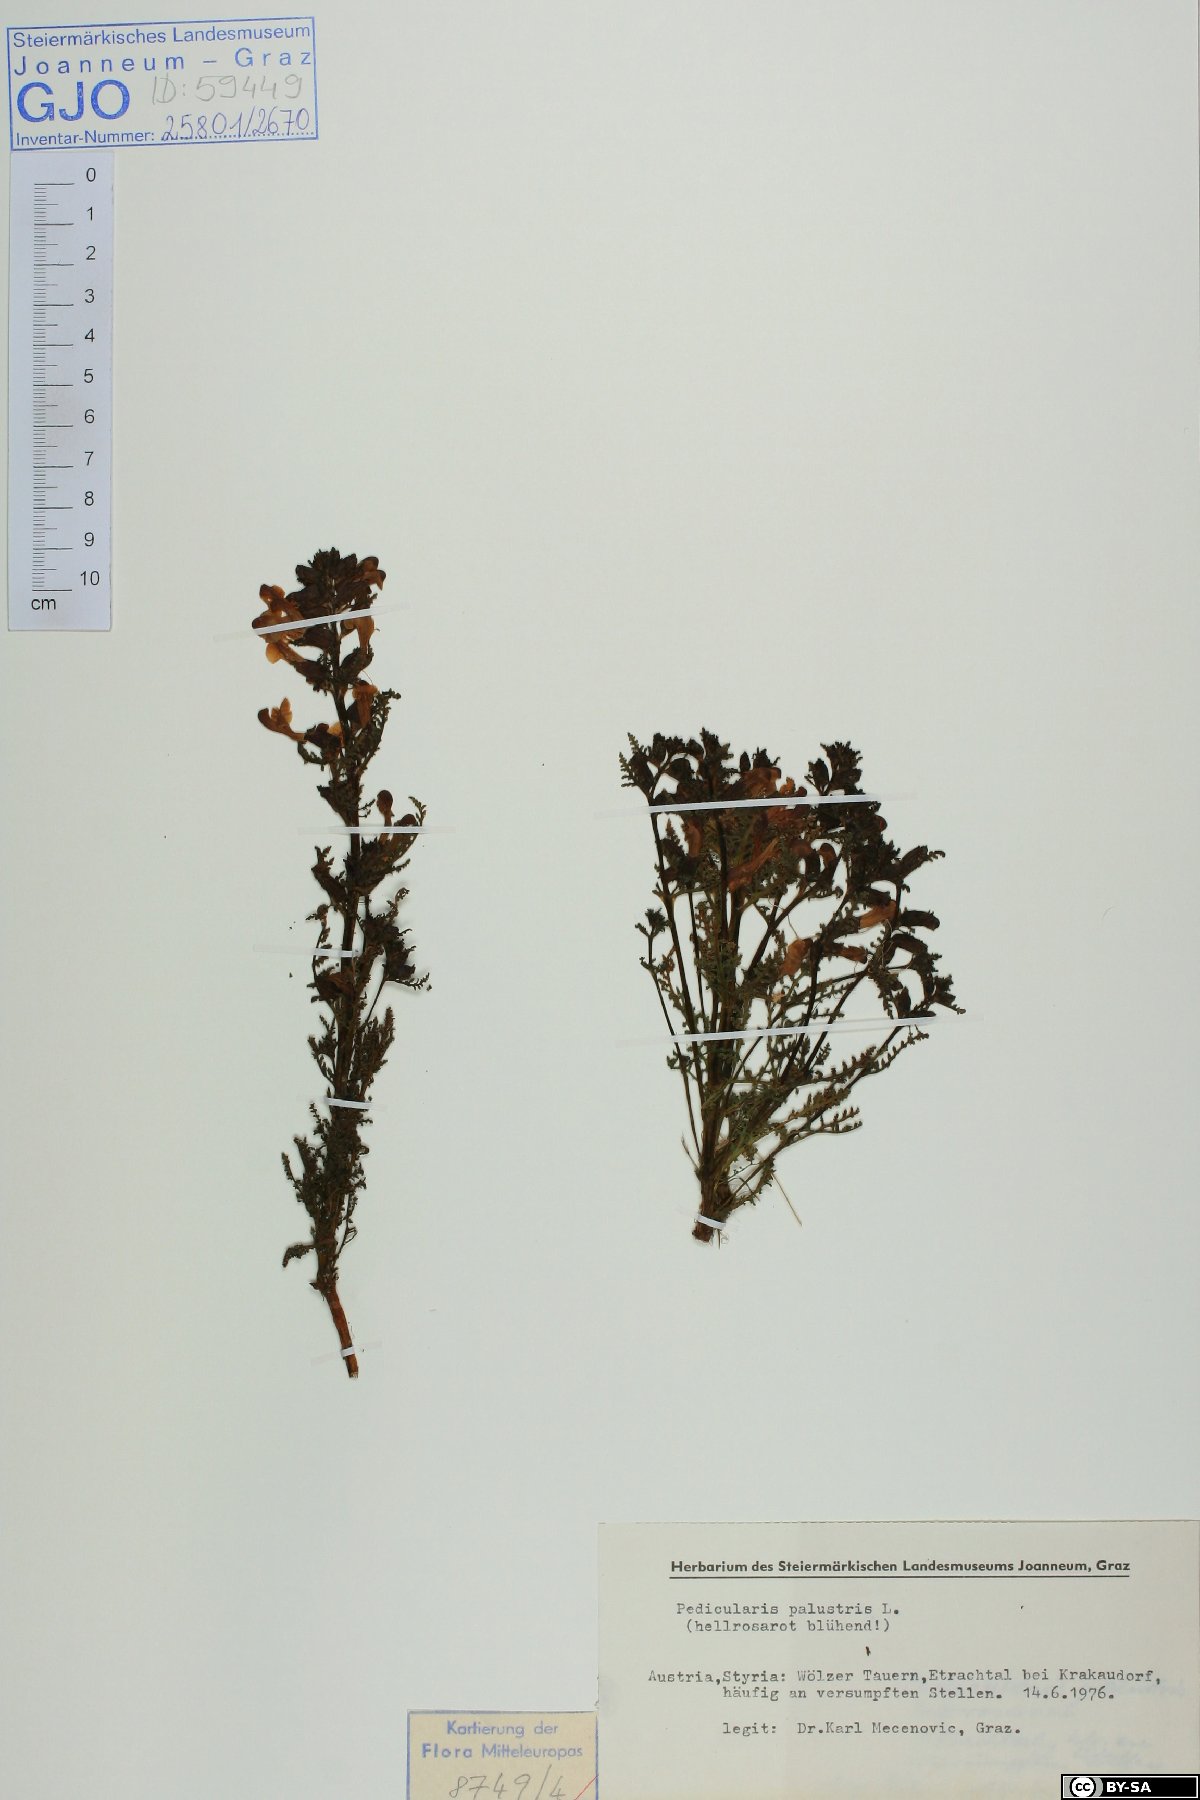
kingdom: Plantae
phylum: Tracheophyta
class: Magnoliopsida
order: Lamiales
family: Orobanchaceae
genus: Pedicularis
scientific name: Pedicularis palustris
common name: Marsh lousewort
